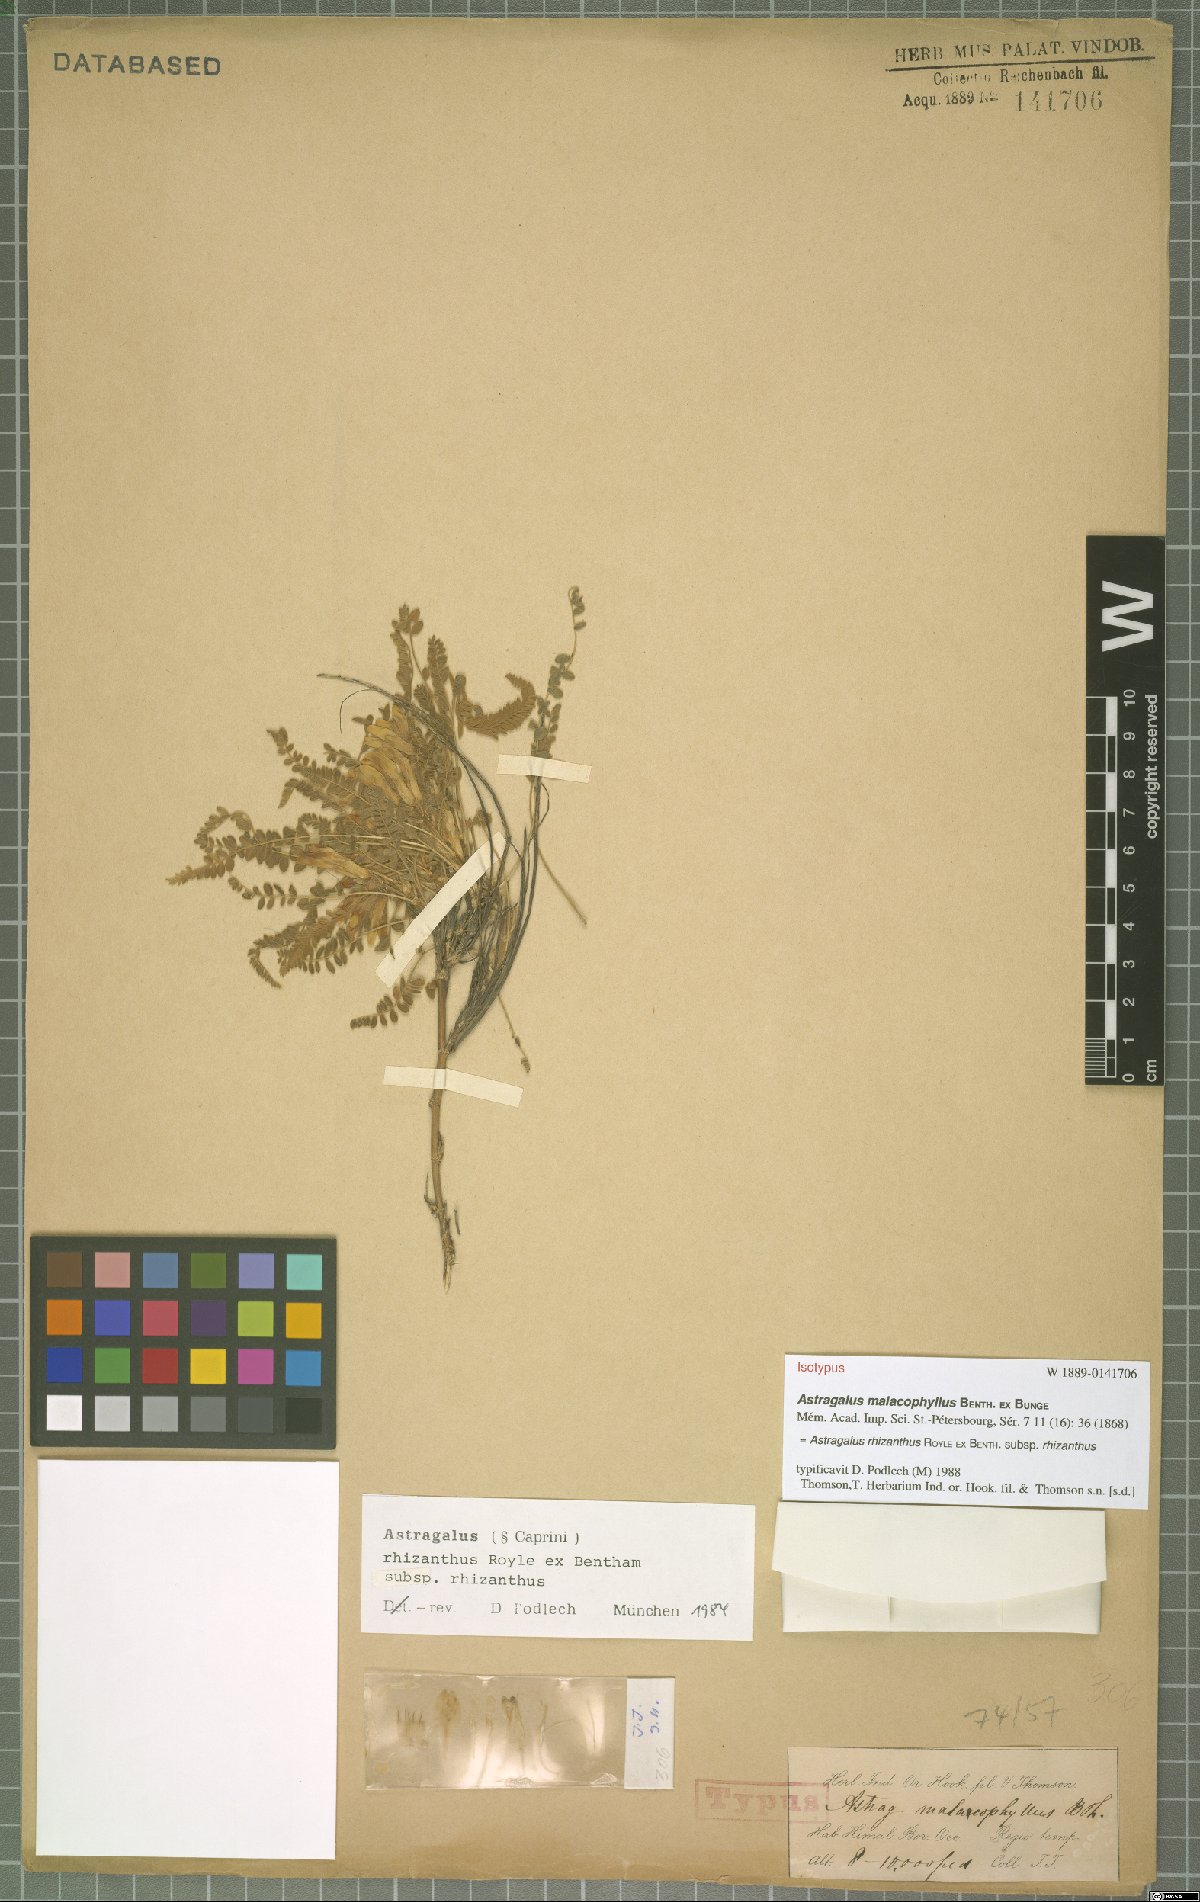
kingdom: Plantae
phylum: Tracheophyta
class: Magnoliopsida
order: Fabales
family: Fabaceae
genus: Astragalus
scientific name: Astragalus rhizanthus
